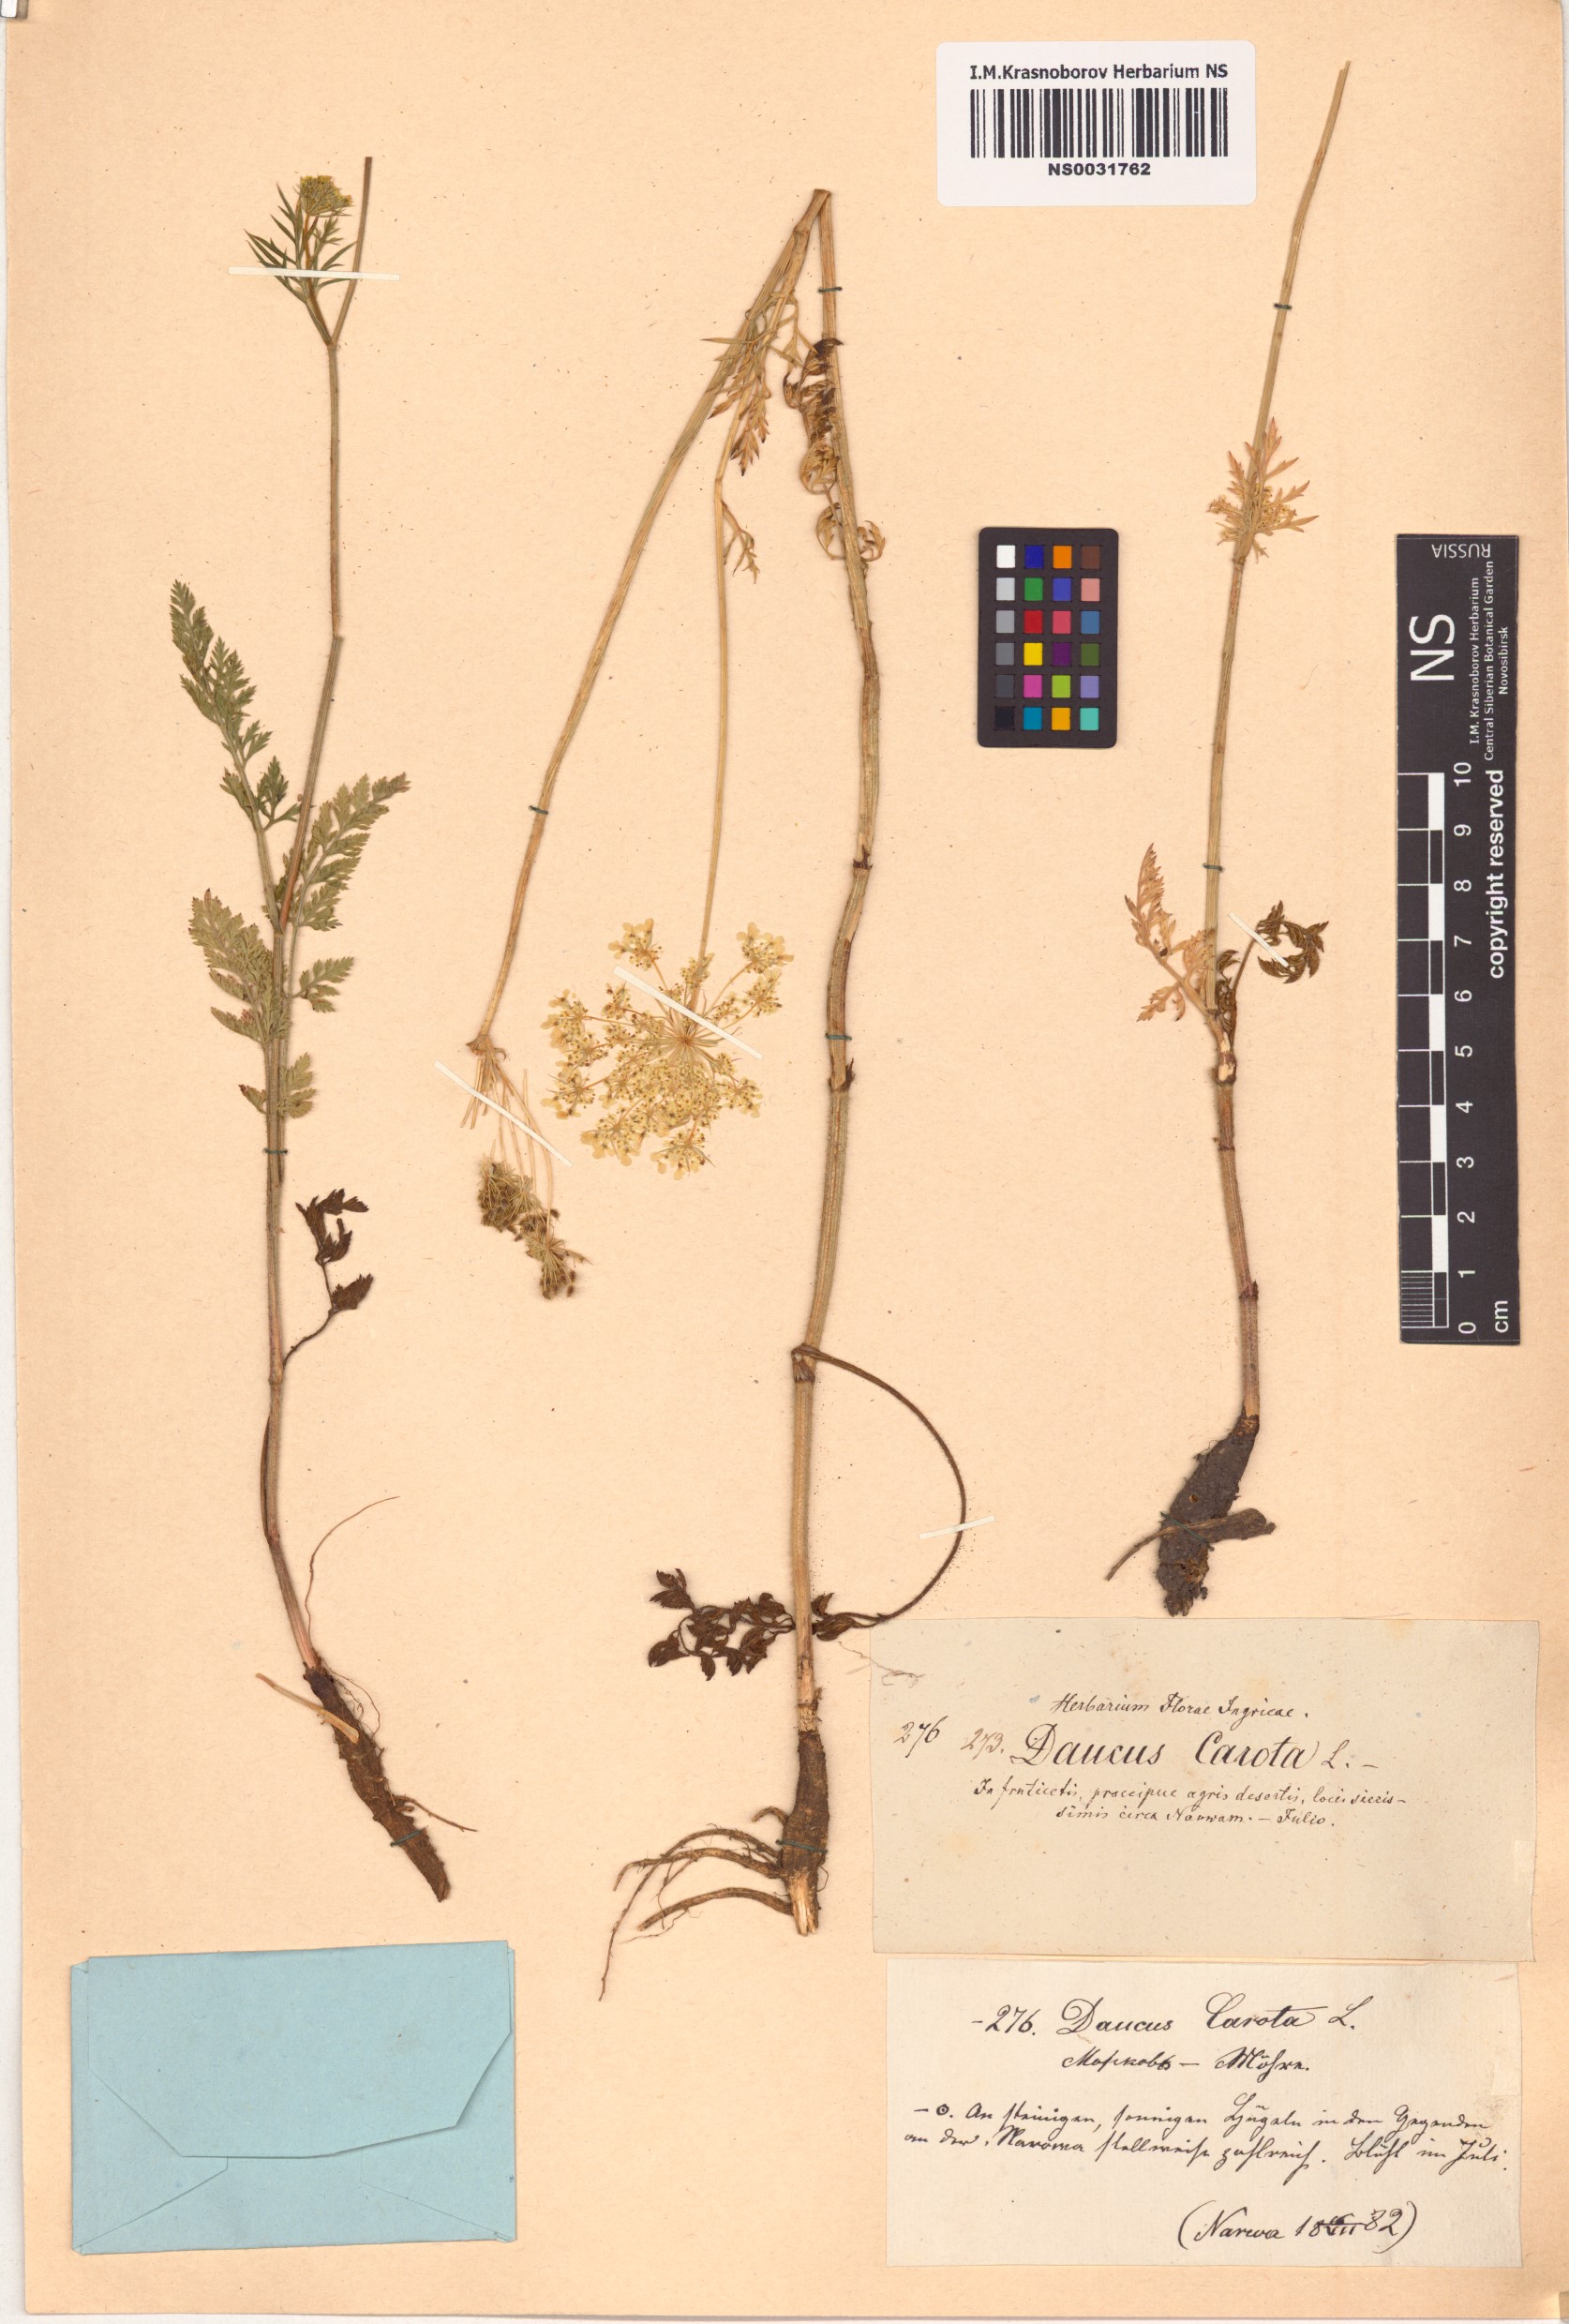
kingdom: Plantae
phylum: Tracheophyta
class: Magnoliopsida
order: Apiales
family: Apiaceae
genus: Daucus
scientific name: Daucus carota
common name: Wild carrot
